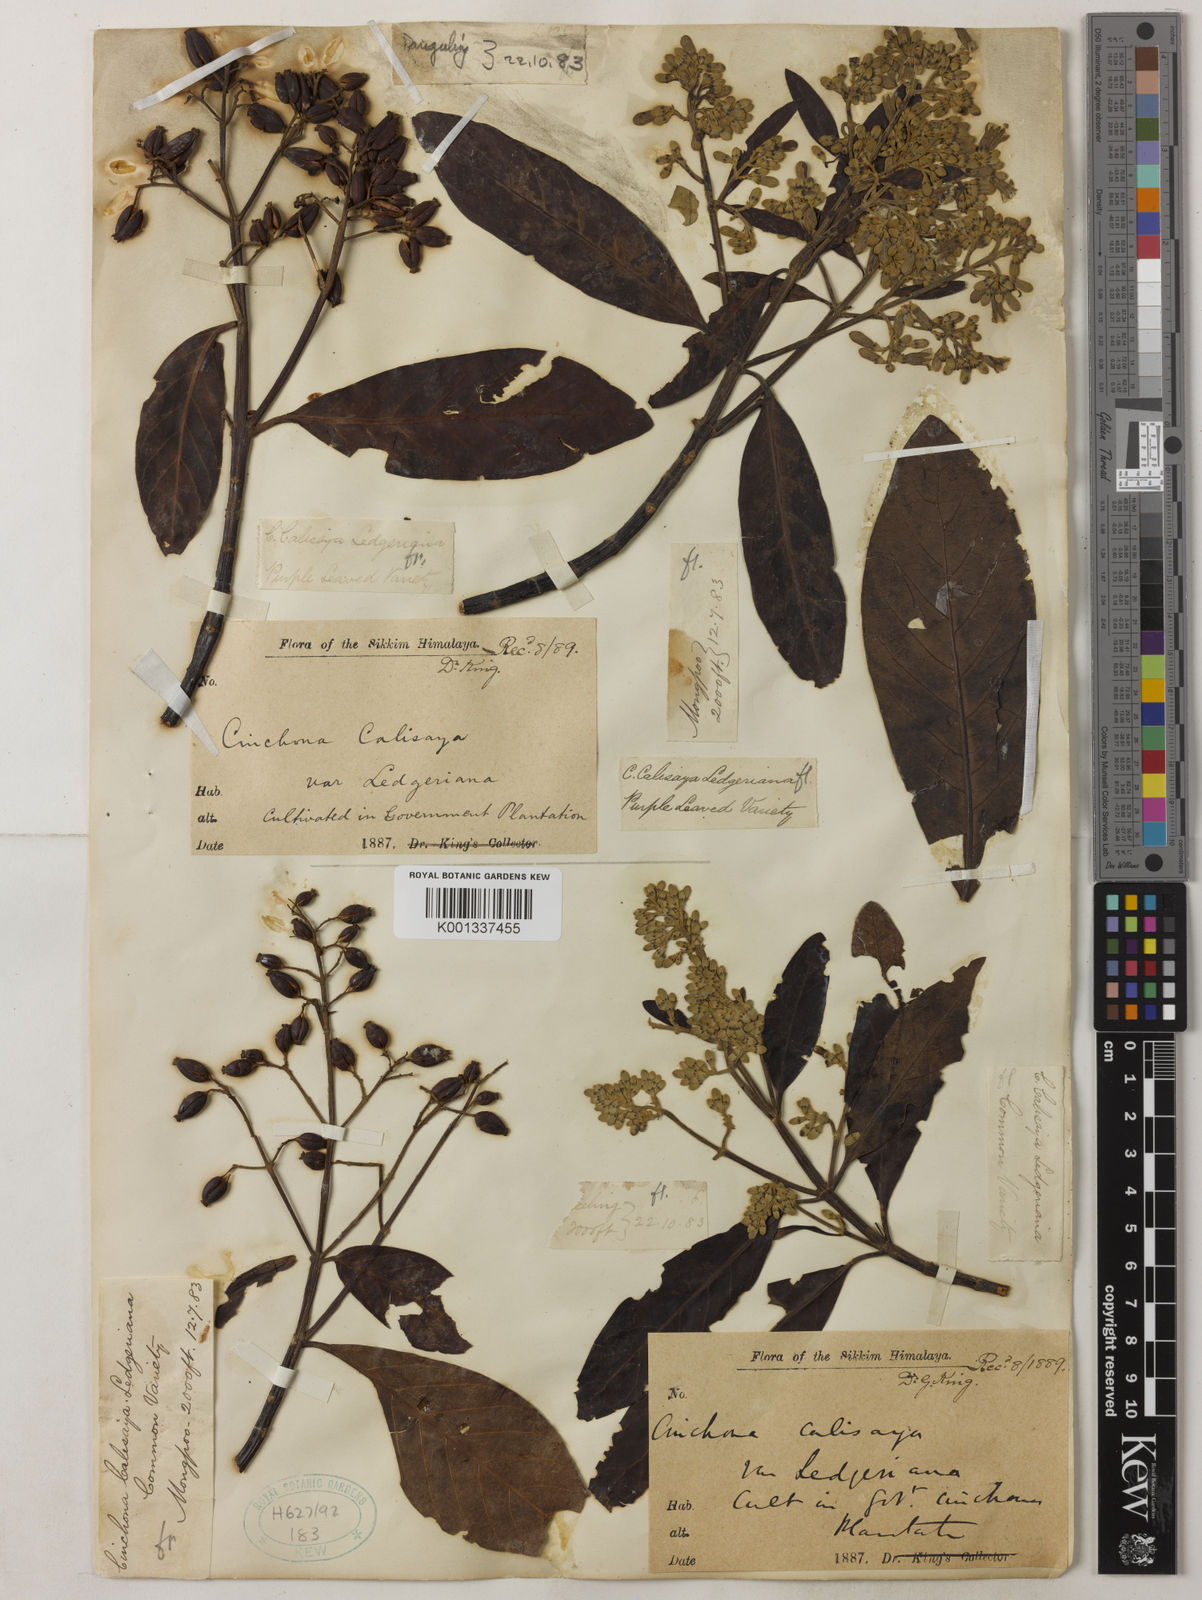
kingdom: Plantae
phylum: Tracheophyta
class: Magnoliopsida
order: Gentianales
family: Rubiaceae
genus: Cinchona
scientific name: Cinchona calisaya
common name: Ledgerbark
